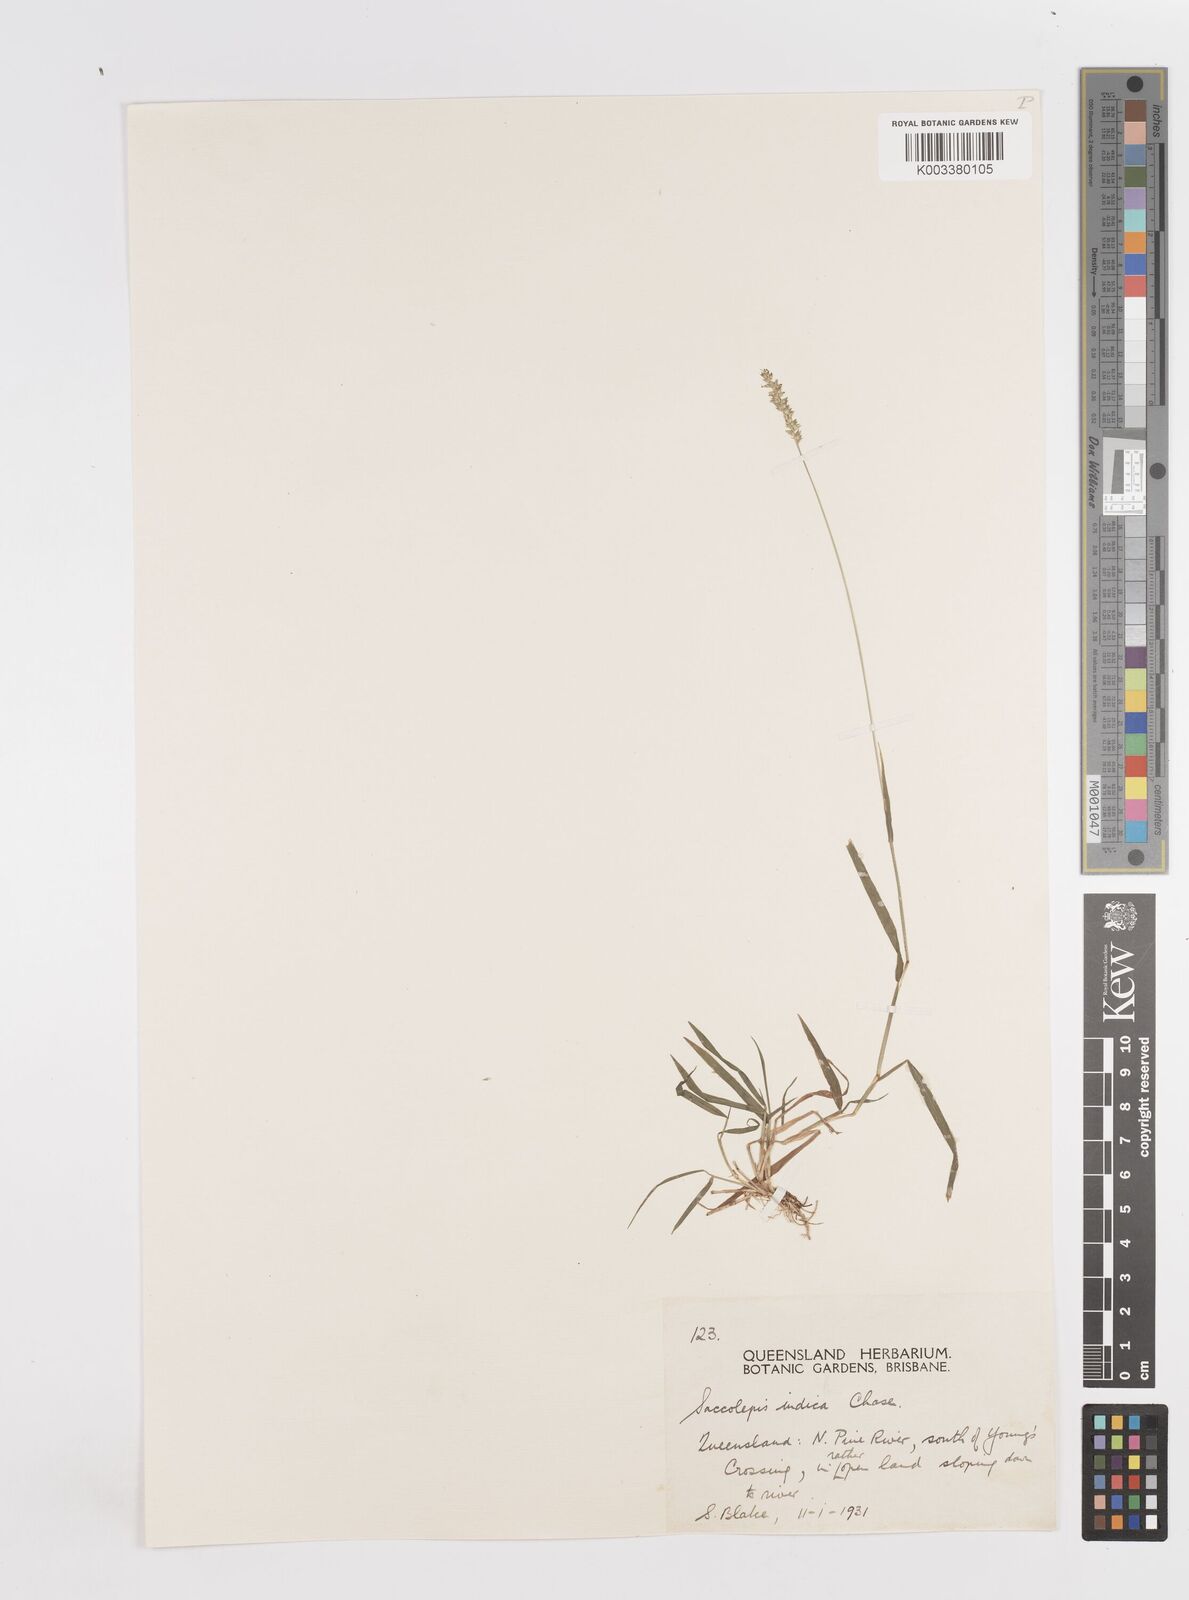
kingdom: Plantae
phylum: Tracheophyta
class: Liliopsida
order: Poales
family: Poaceae
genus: Sacciolepis
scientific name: Sacciolepis indica
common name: Glenwoodgrass
